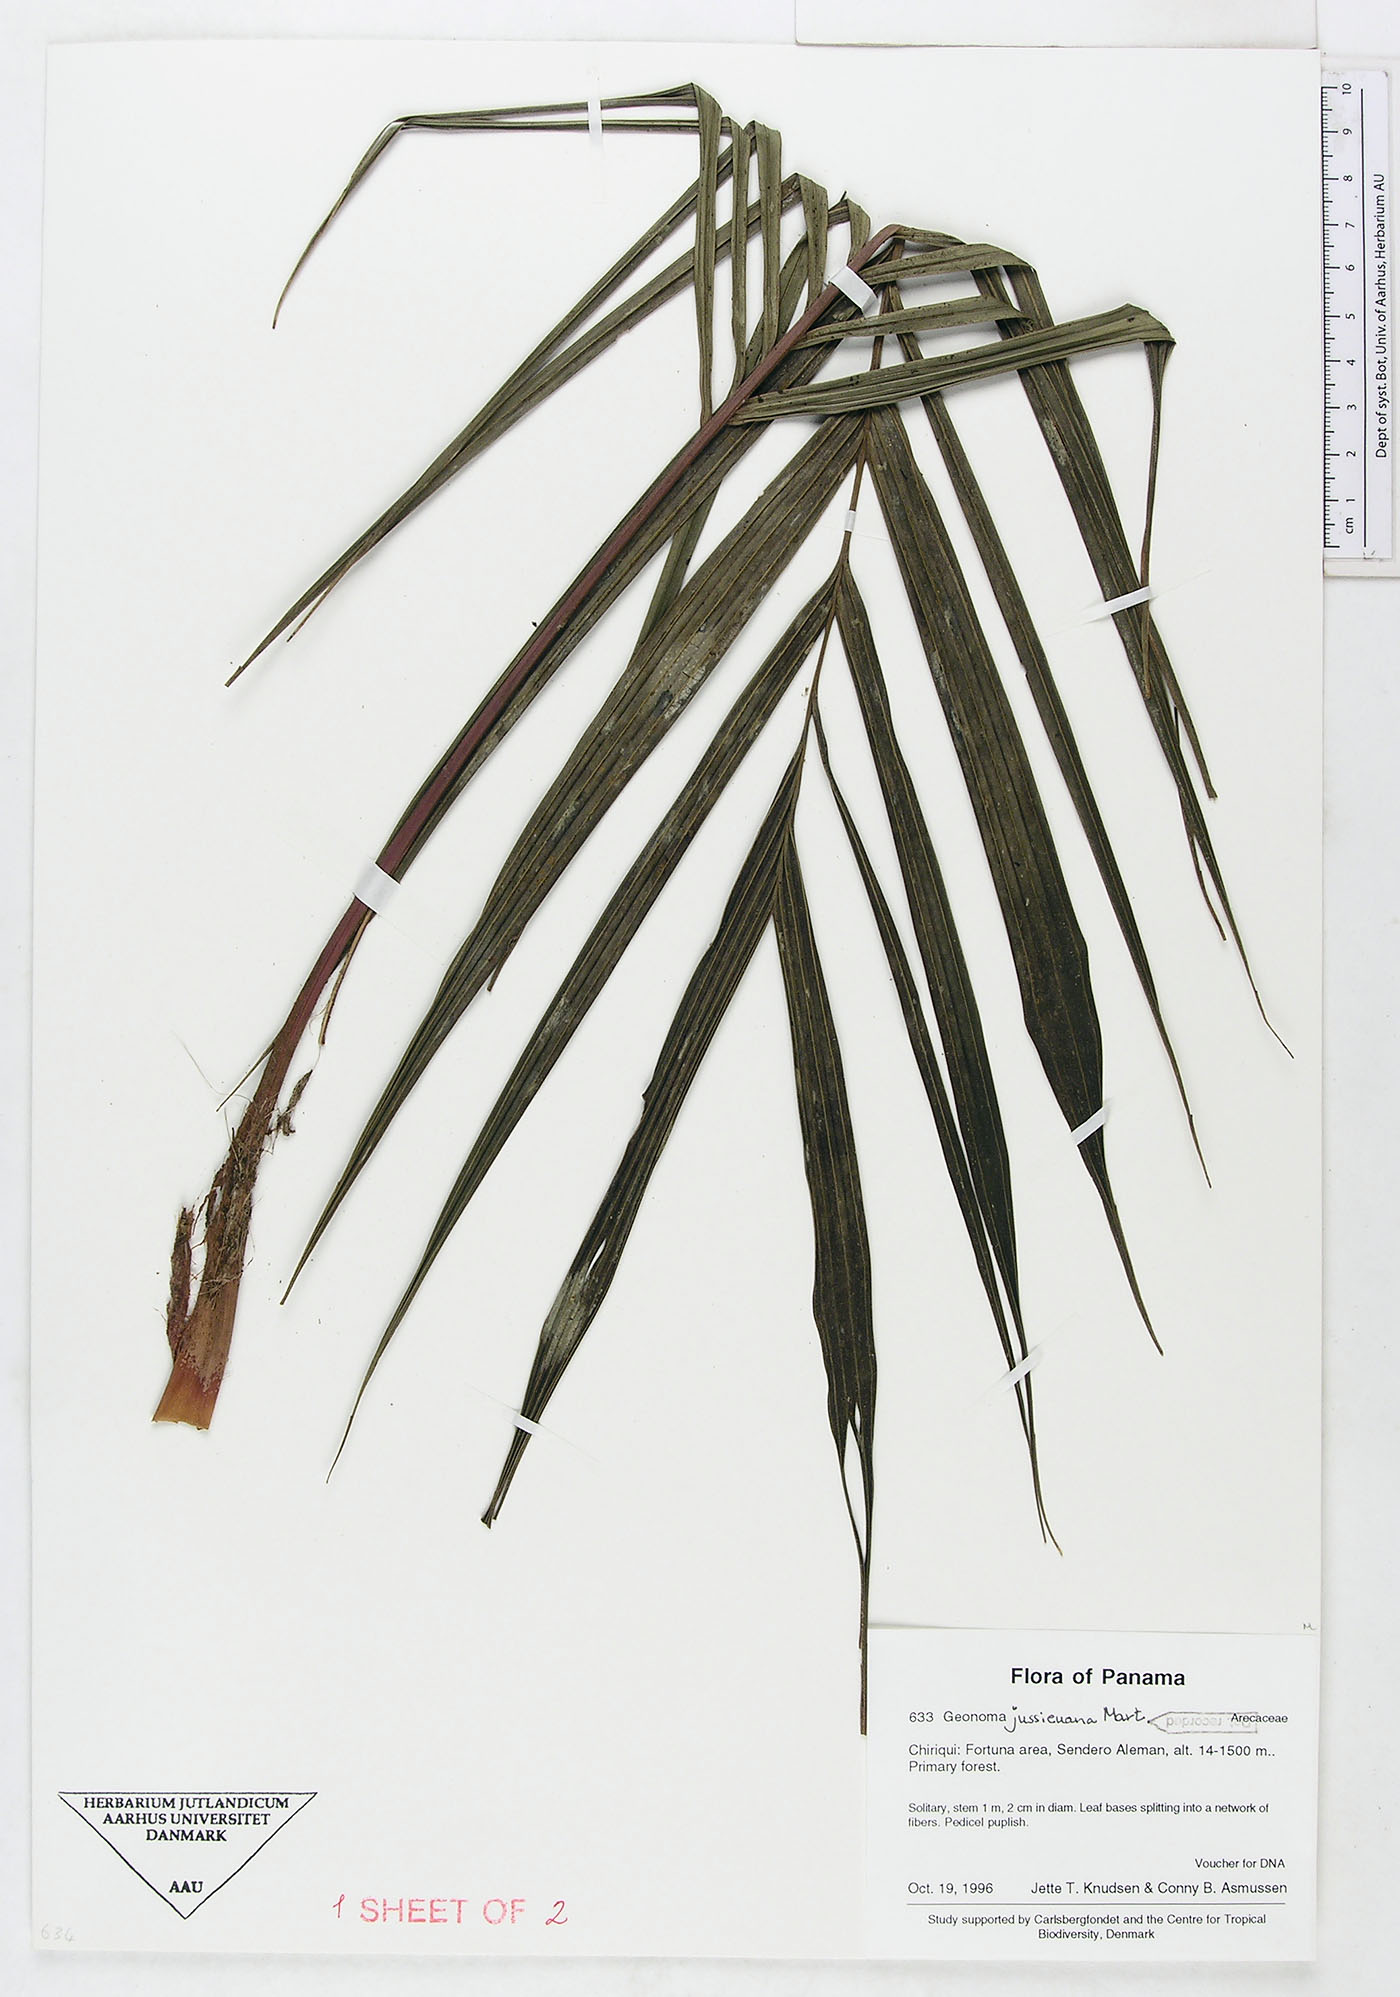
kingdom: Plantae
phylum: Tracheophyta
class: Liliopsida
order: Arecales
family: Arecaceae
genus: Geonoma
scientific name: Geonoma orbignyana
